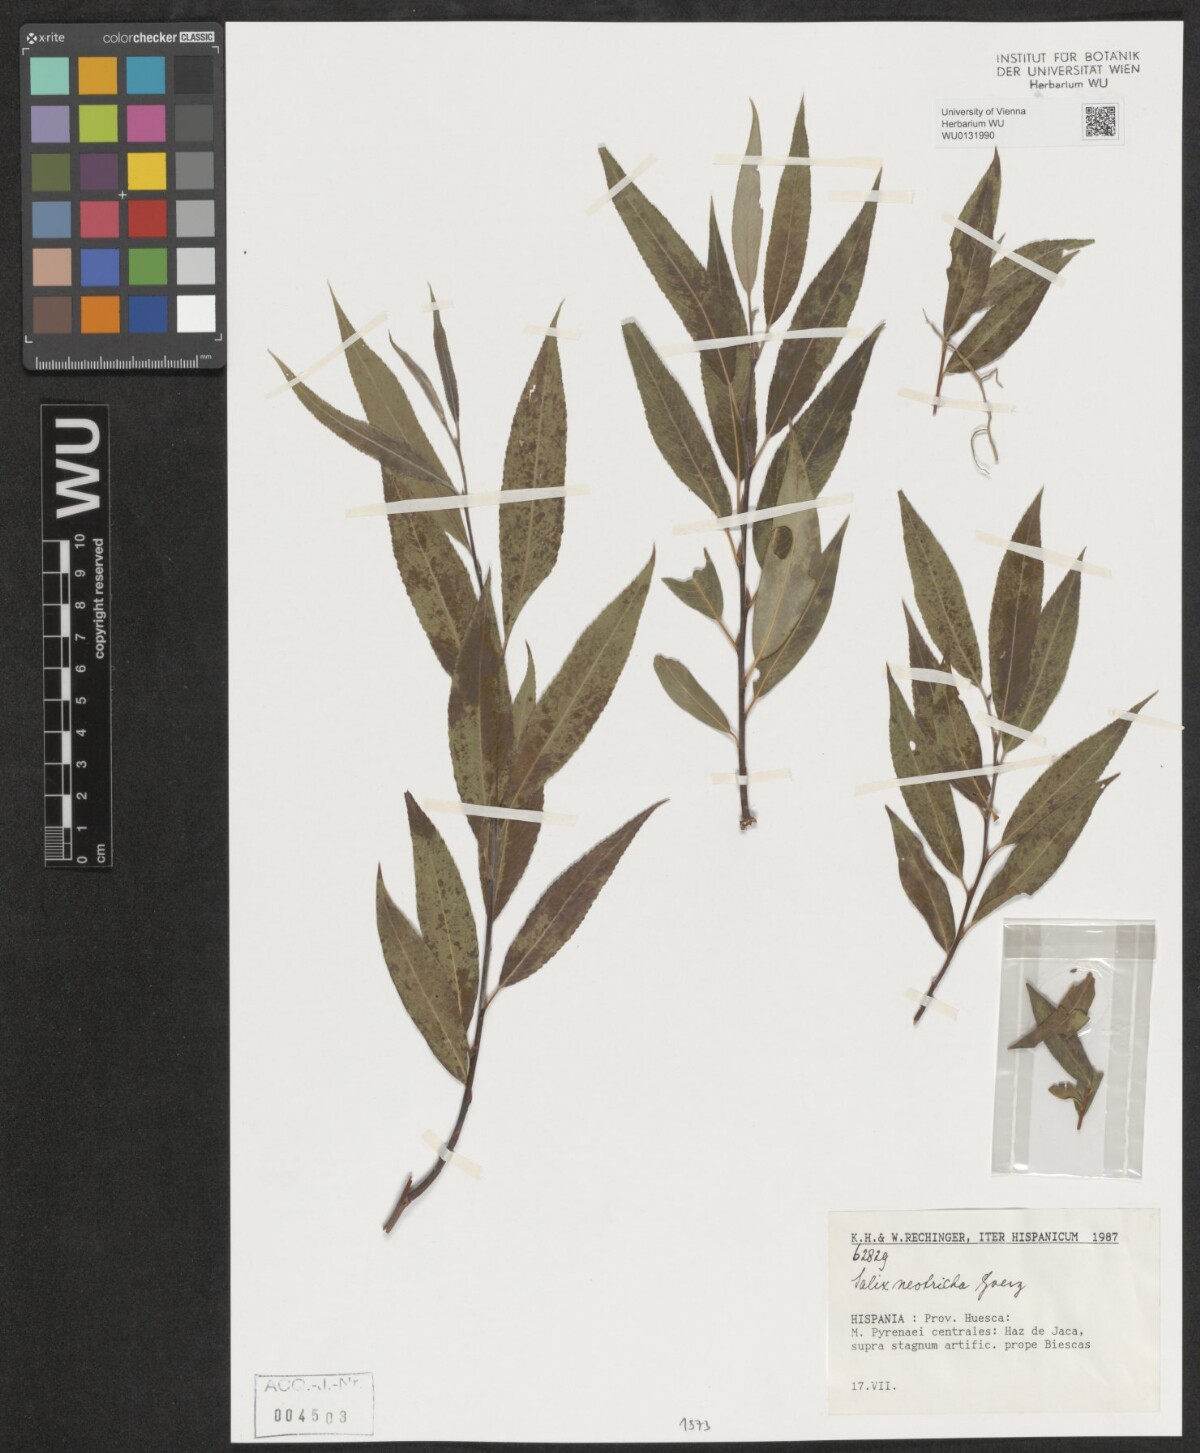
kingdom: Plantae
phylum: Tracheophyta
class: Magnoliopsida
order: Malpighiales
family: Salicaceae
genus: Salix
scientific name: Salix rubens
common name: Hybrid crack willow
